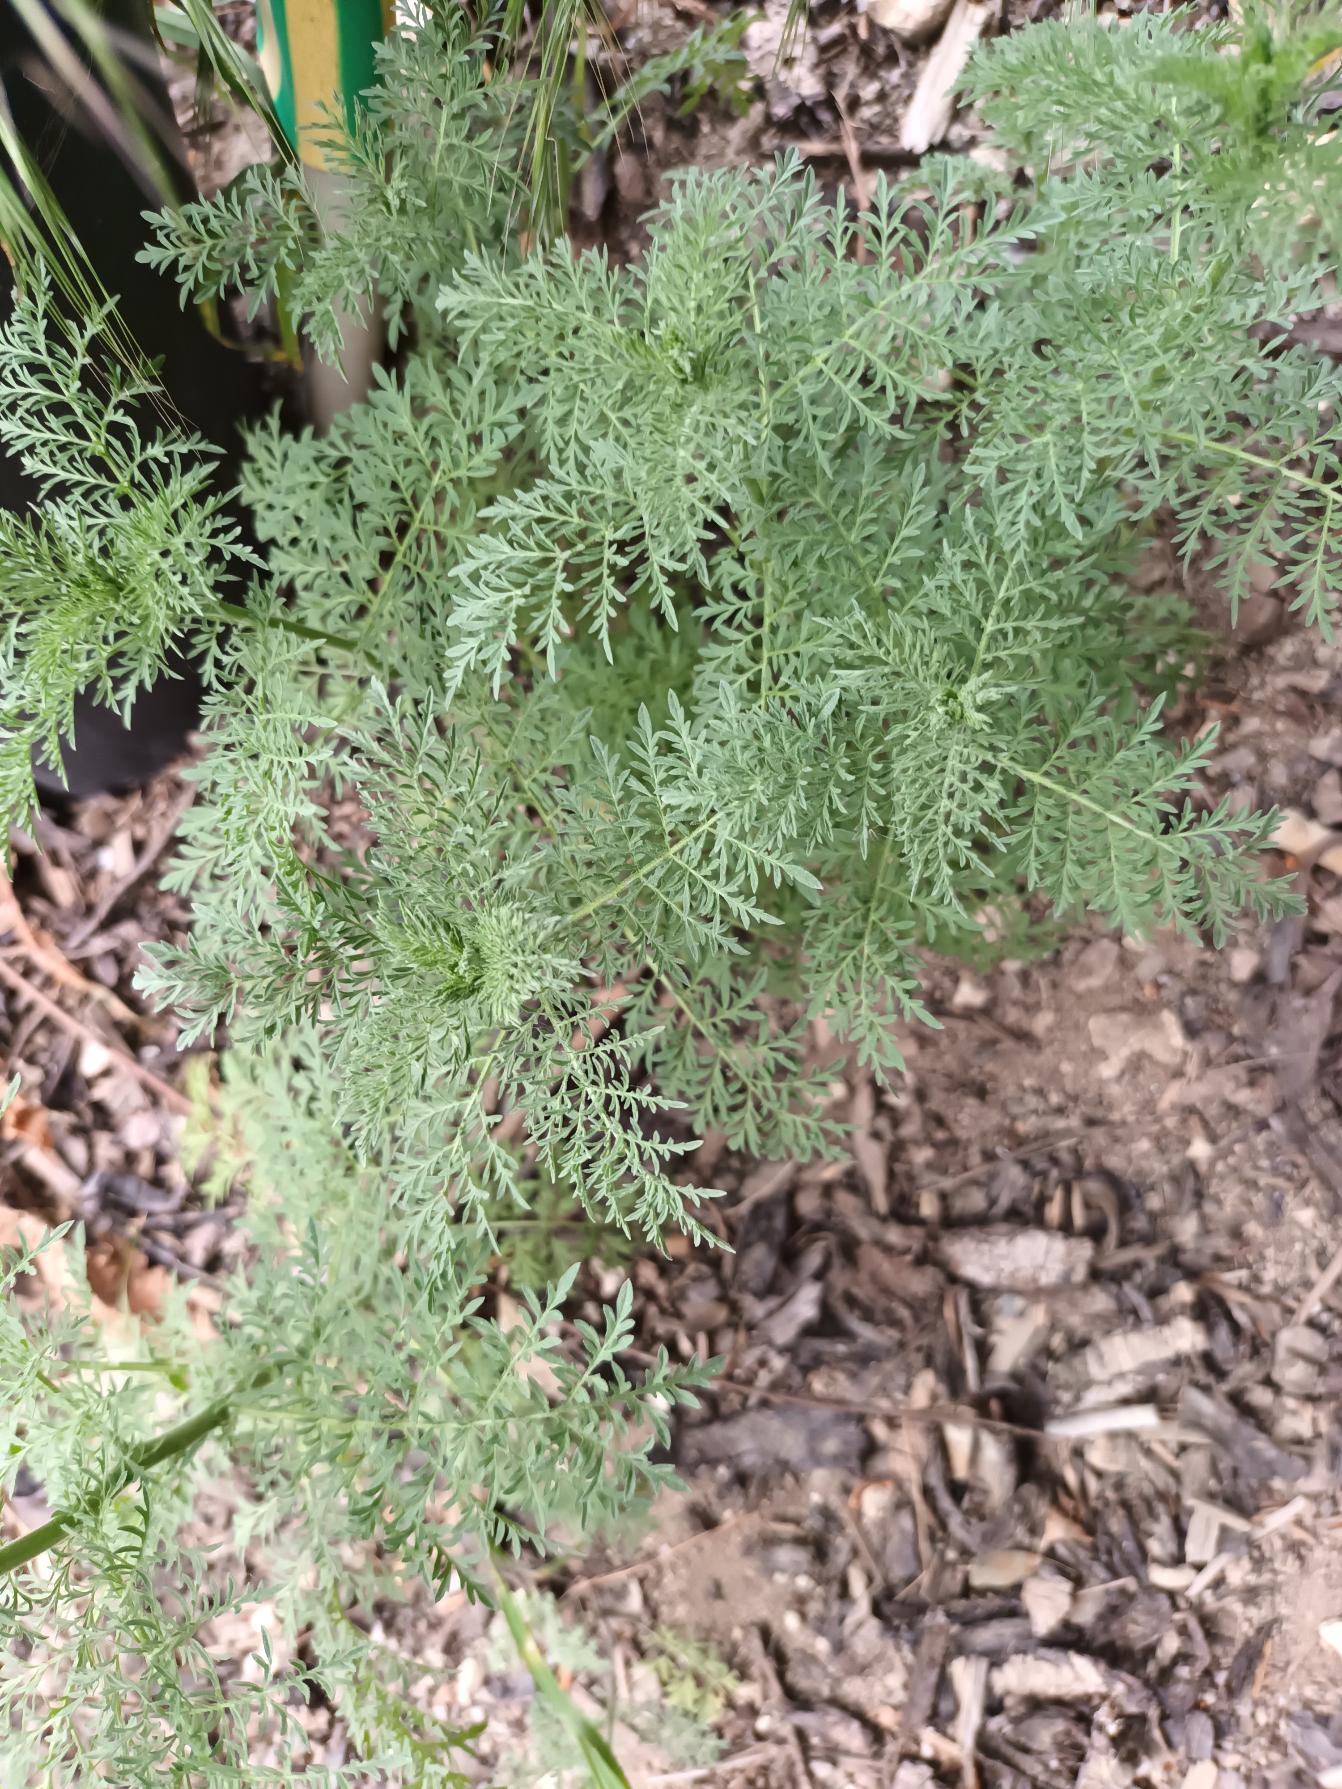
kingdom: Plantae
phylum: Tracheophyta
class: Magnoliopsida
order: Brassicales
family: Brassicaceae
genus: Descurainia
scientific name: Descurainia sophia
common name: Finbladet vejsennep
